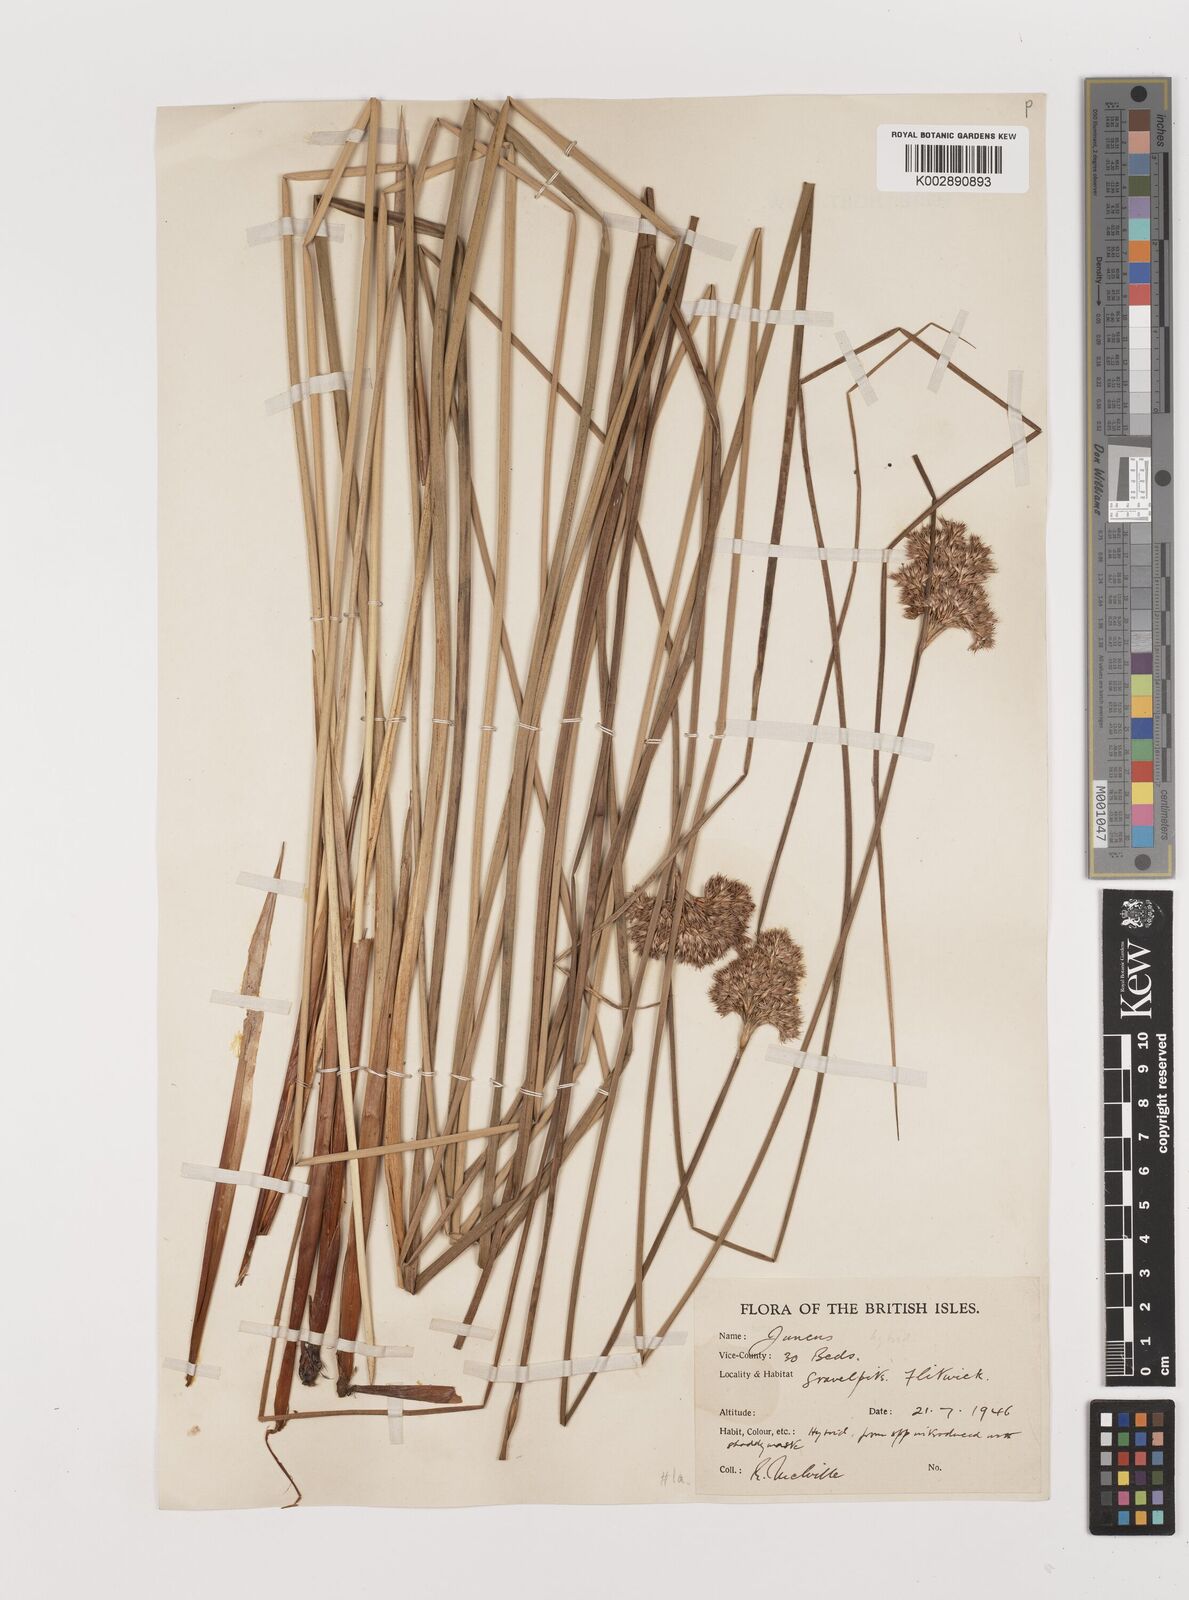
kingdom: Plantae
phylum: Tracheophyta
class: Liliopsida
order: Poales
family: Juncaceae
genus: Juncus
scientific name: Juncus
